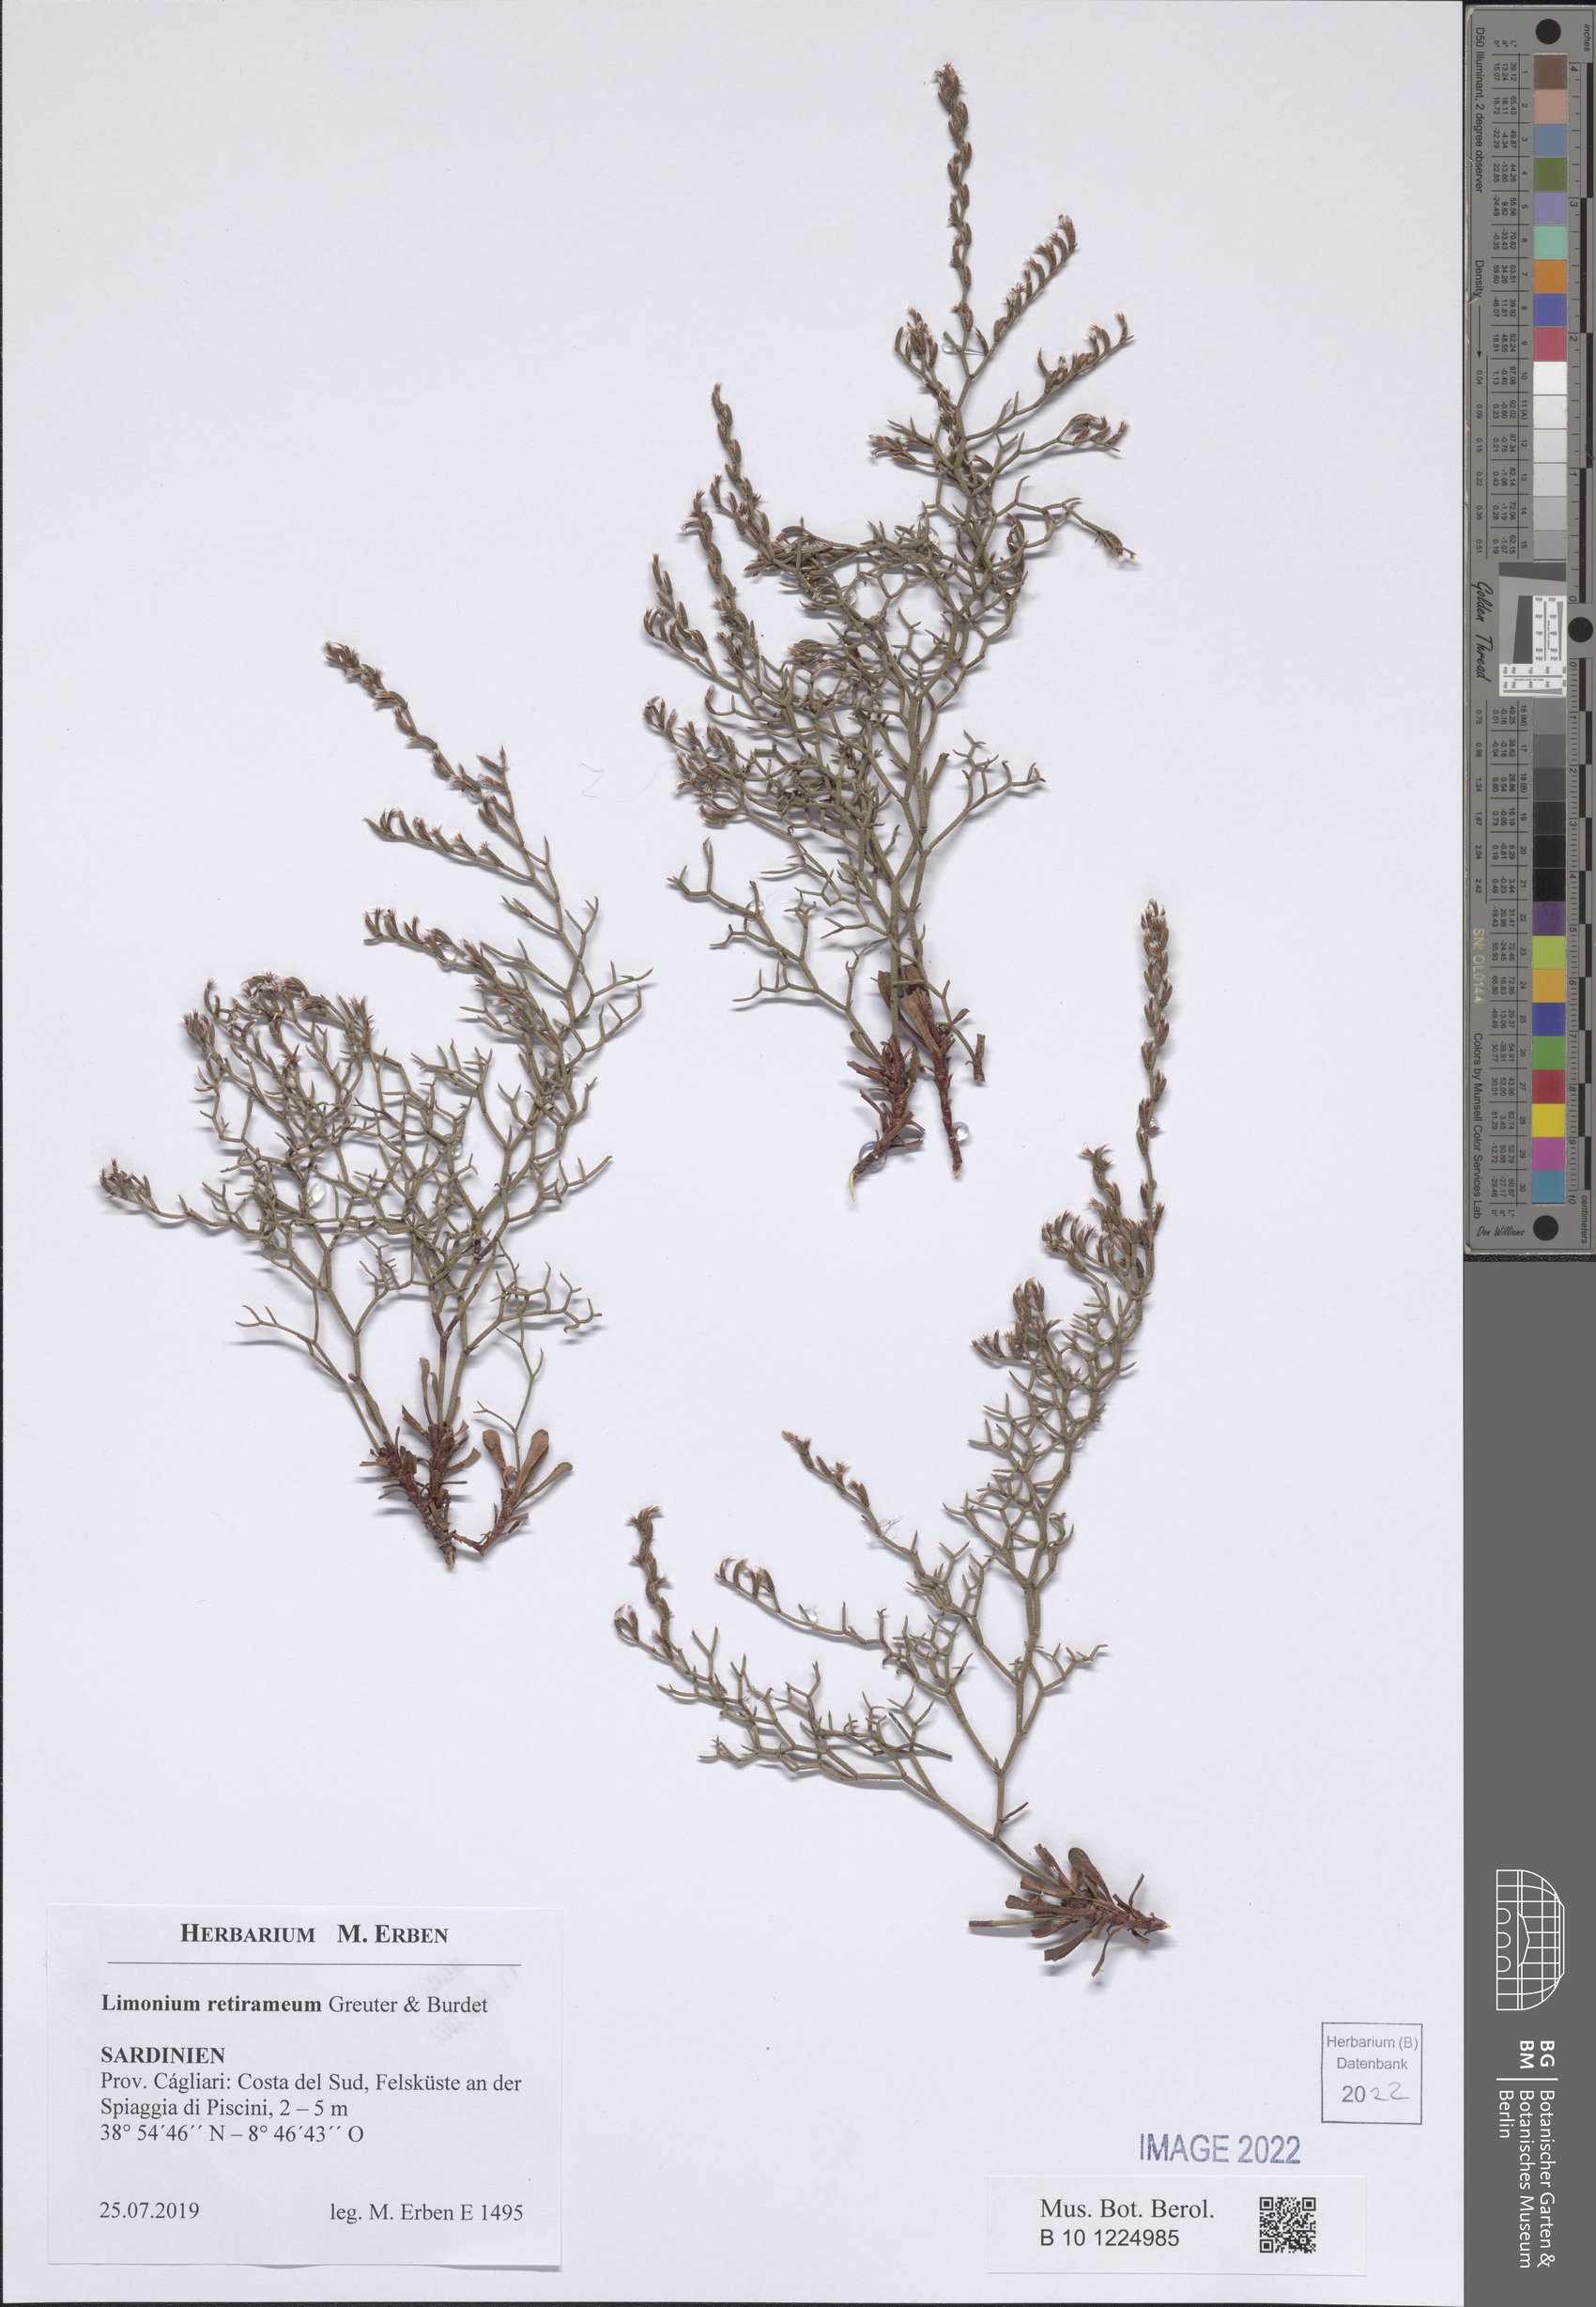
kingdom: Plantae
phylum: Tracheophyta
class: Magnoliopsida
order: Caryophyllales
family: Plumbaginaceae
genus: Limonium
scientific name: Limonium retirameum
